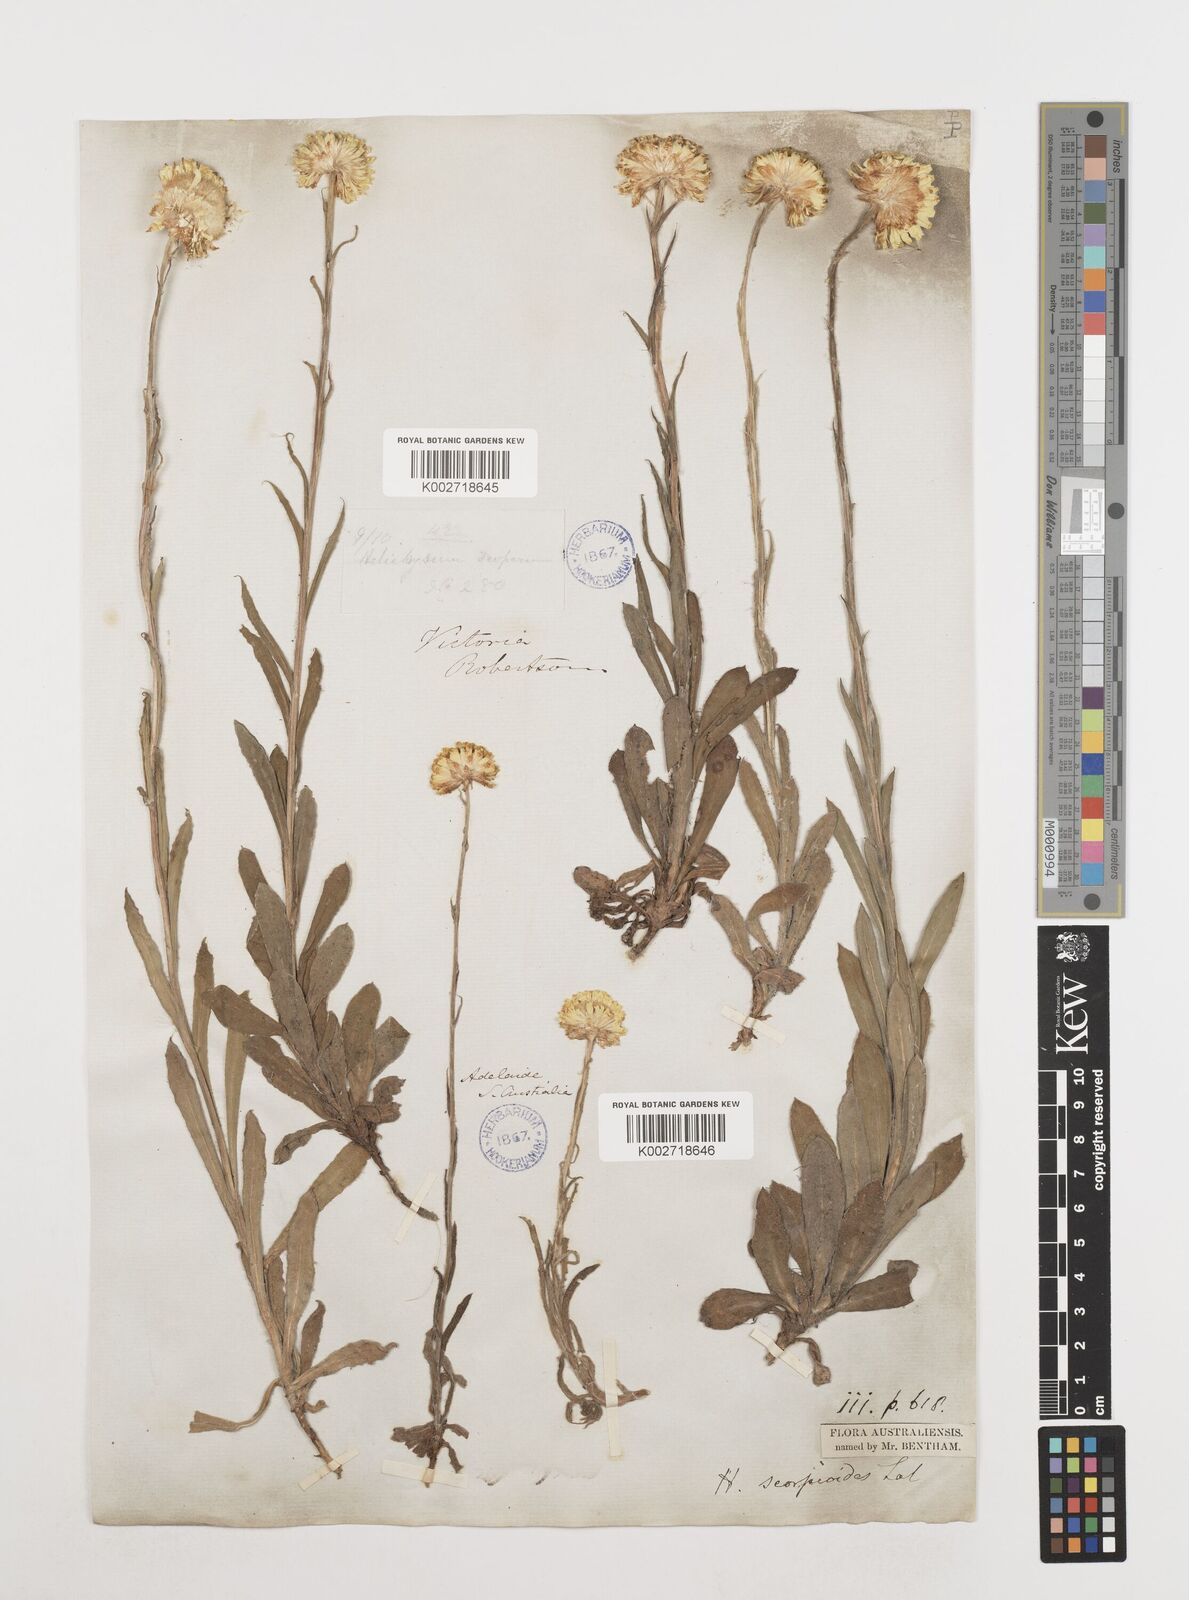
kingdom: Plantae
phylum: Tracheophyta
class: Magnoliopsida
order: Asterales
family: Asteraceae
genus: Coronidium
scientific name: Coronidium scorpioides
